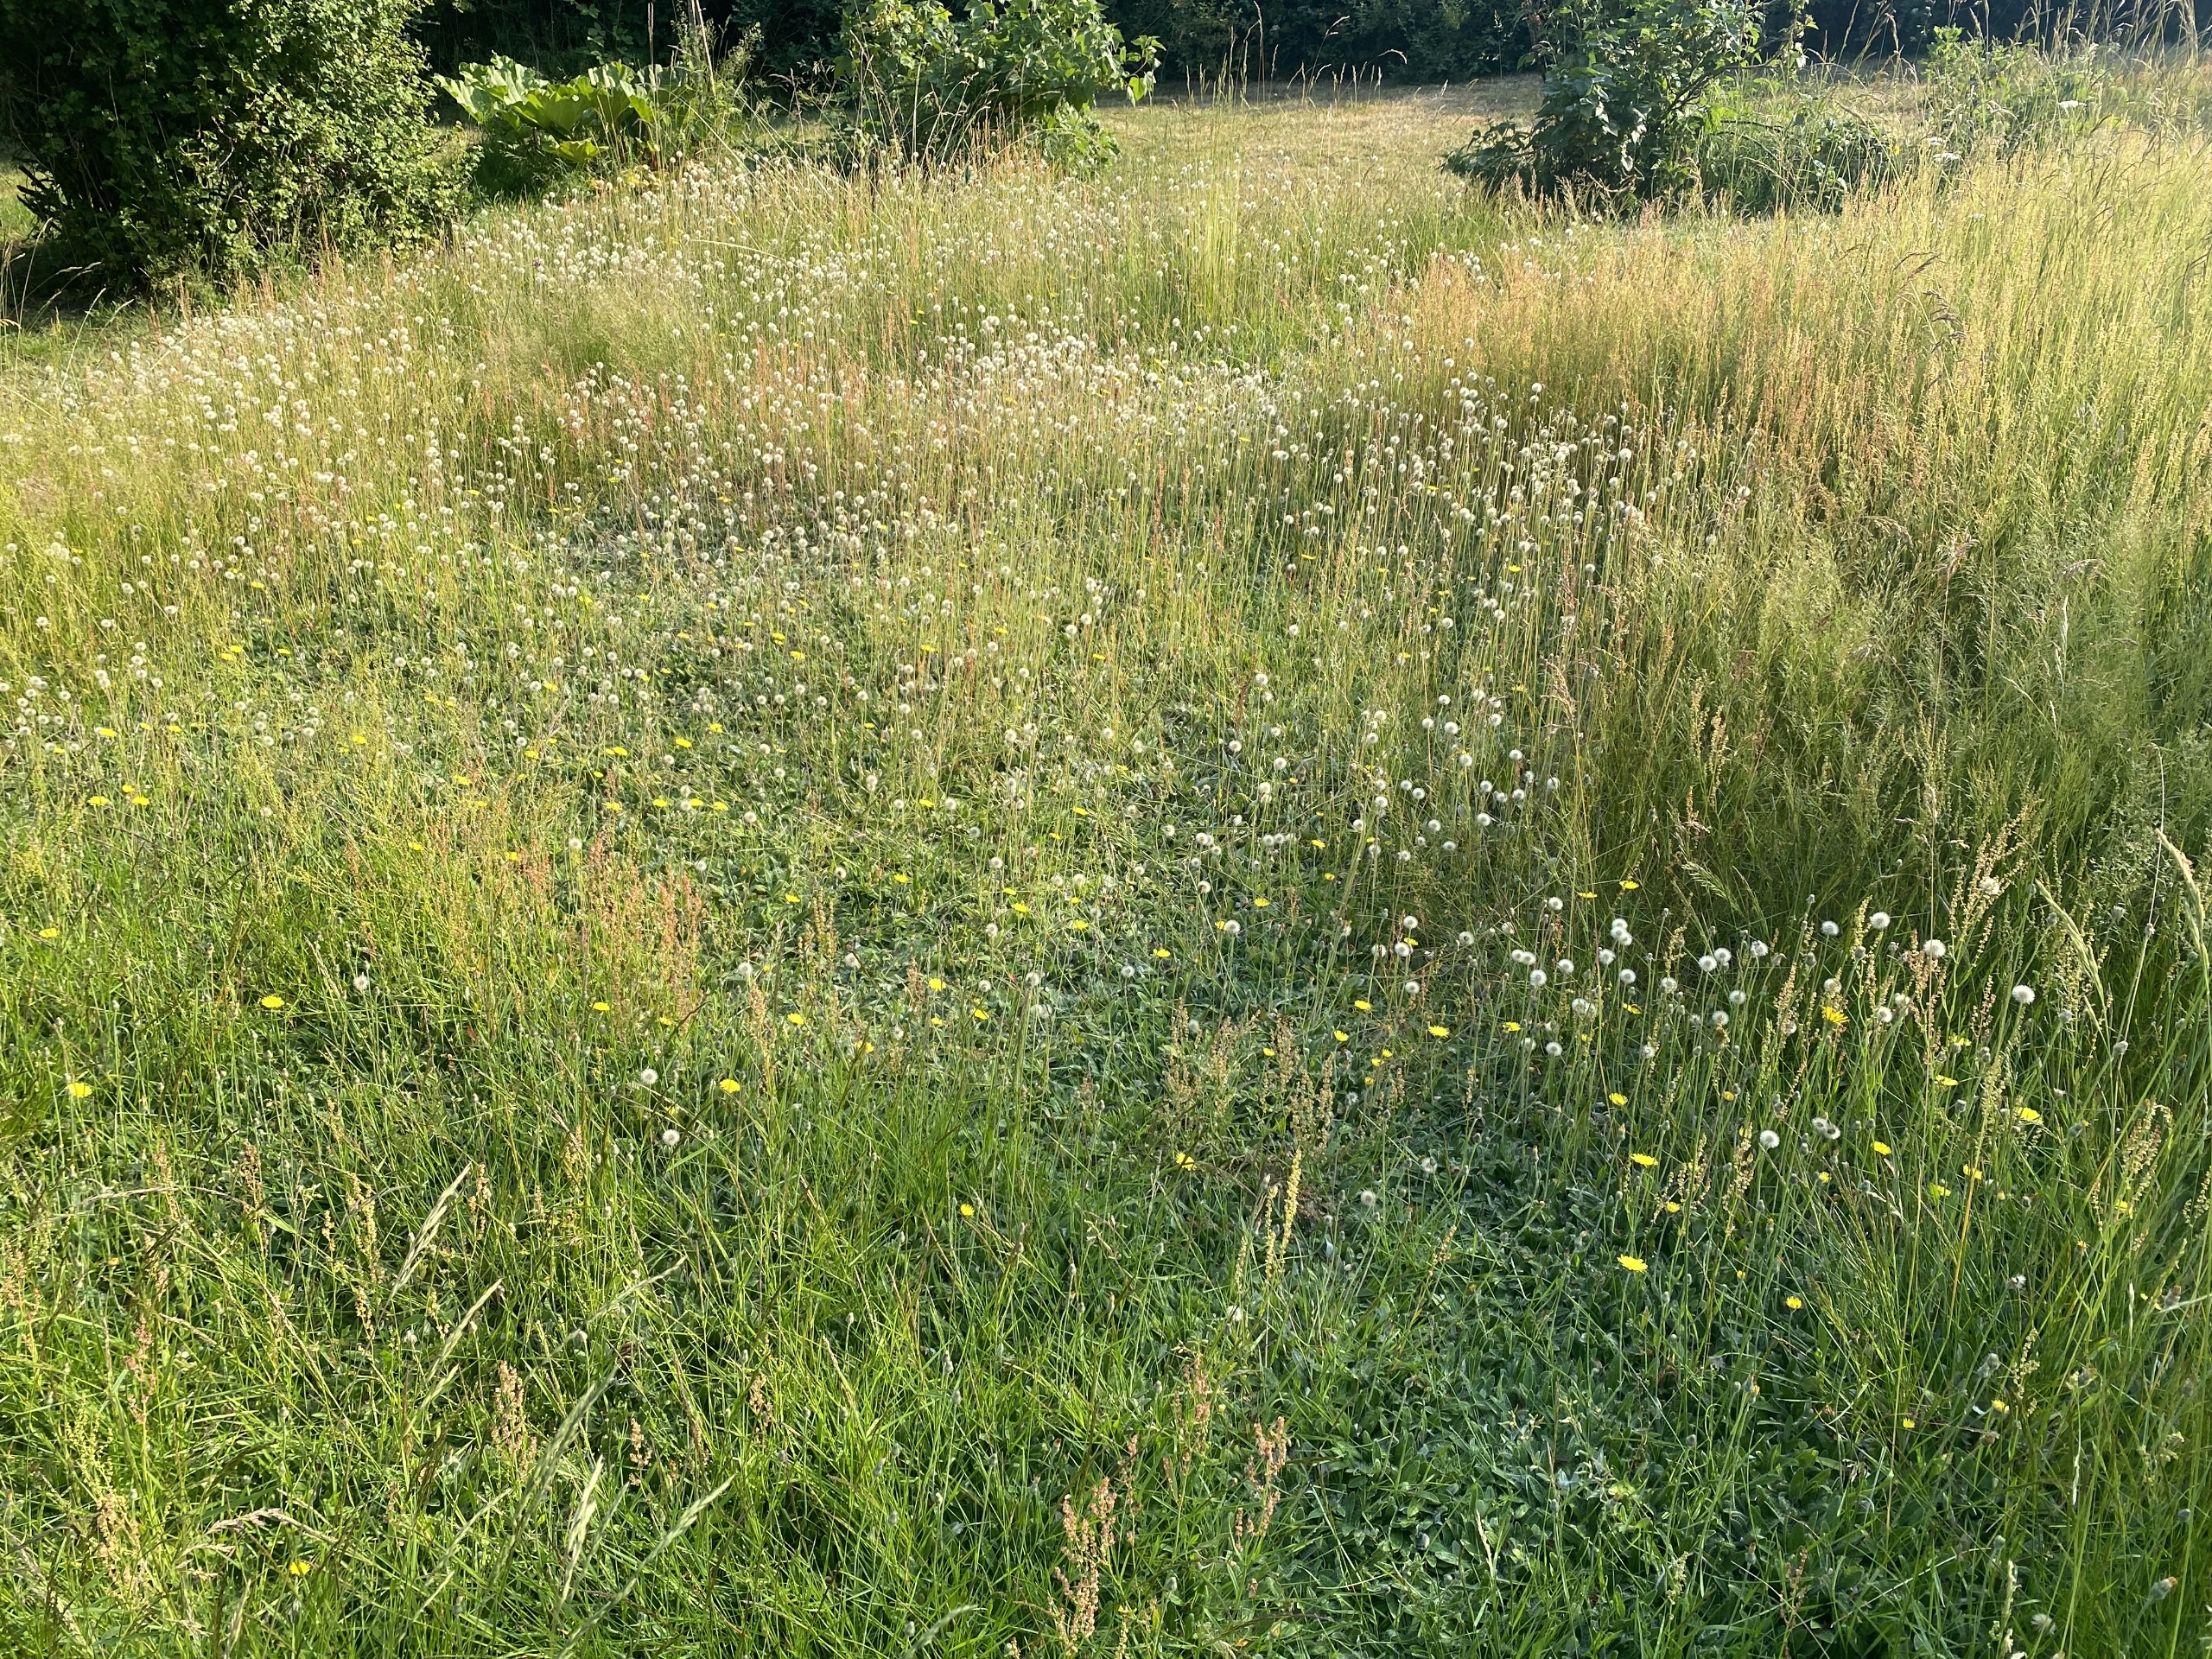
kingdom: Plantae
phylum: Tracheophyta
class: Magnoliopsida
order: Asterales
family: Asteraceae
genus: Pilosella
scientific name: Pilosella officinarum
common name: Håret høgeurt
